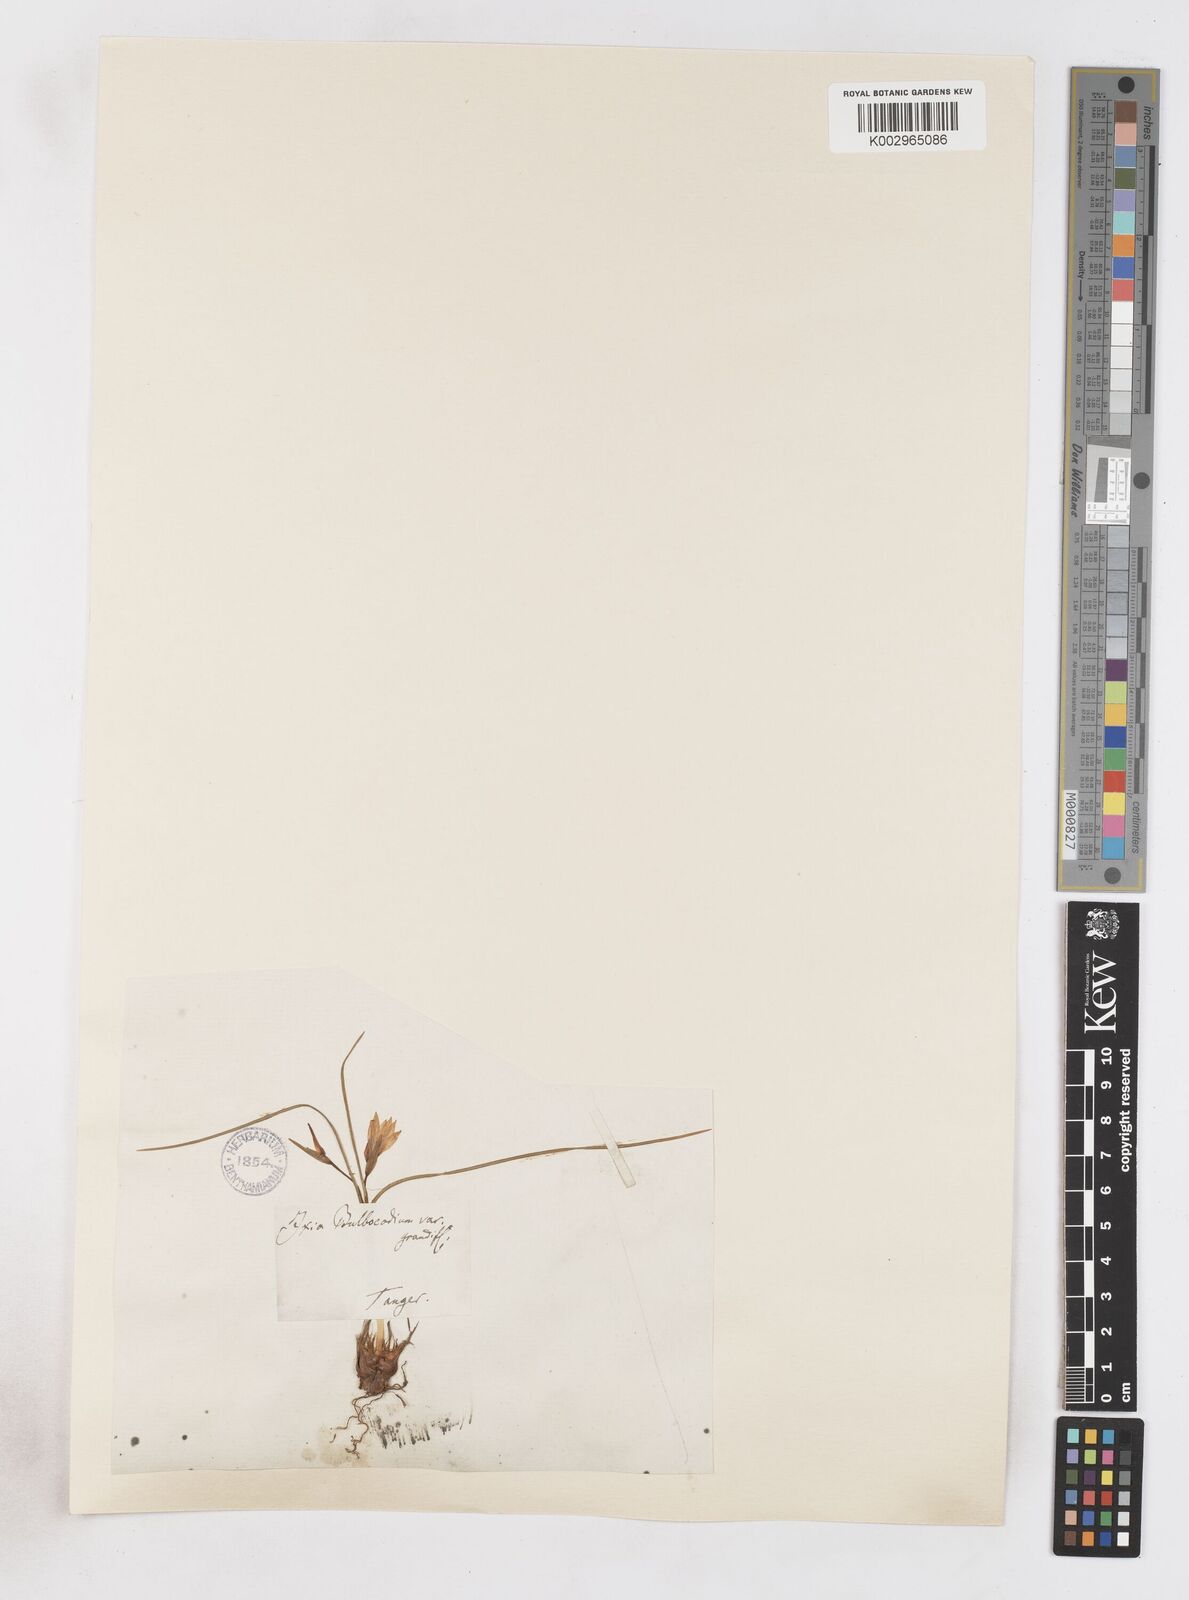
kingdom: Plantae
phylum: Tracheophyta
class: Liliopsida
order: Asparagales
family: Iridaceae
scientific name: Iridaceae
